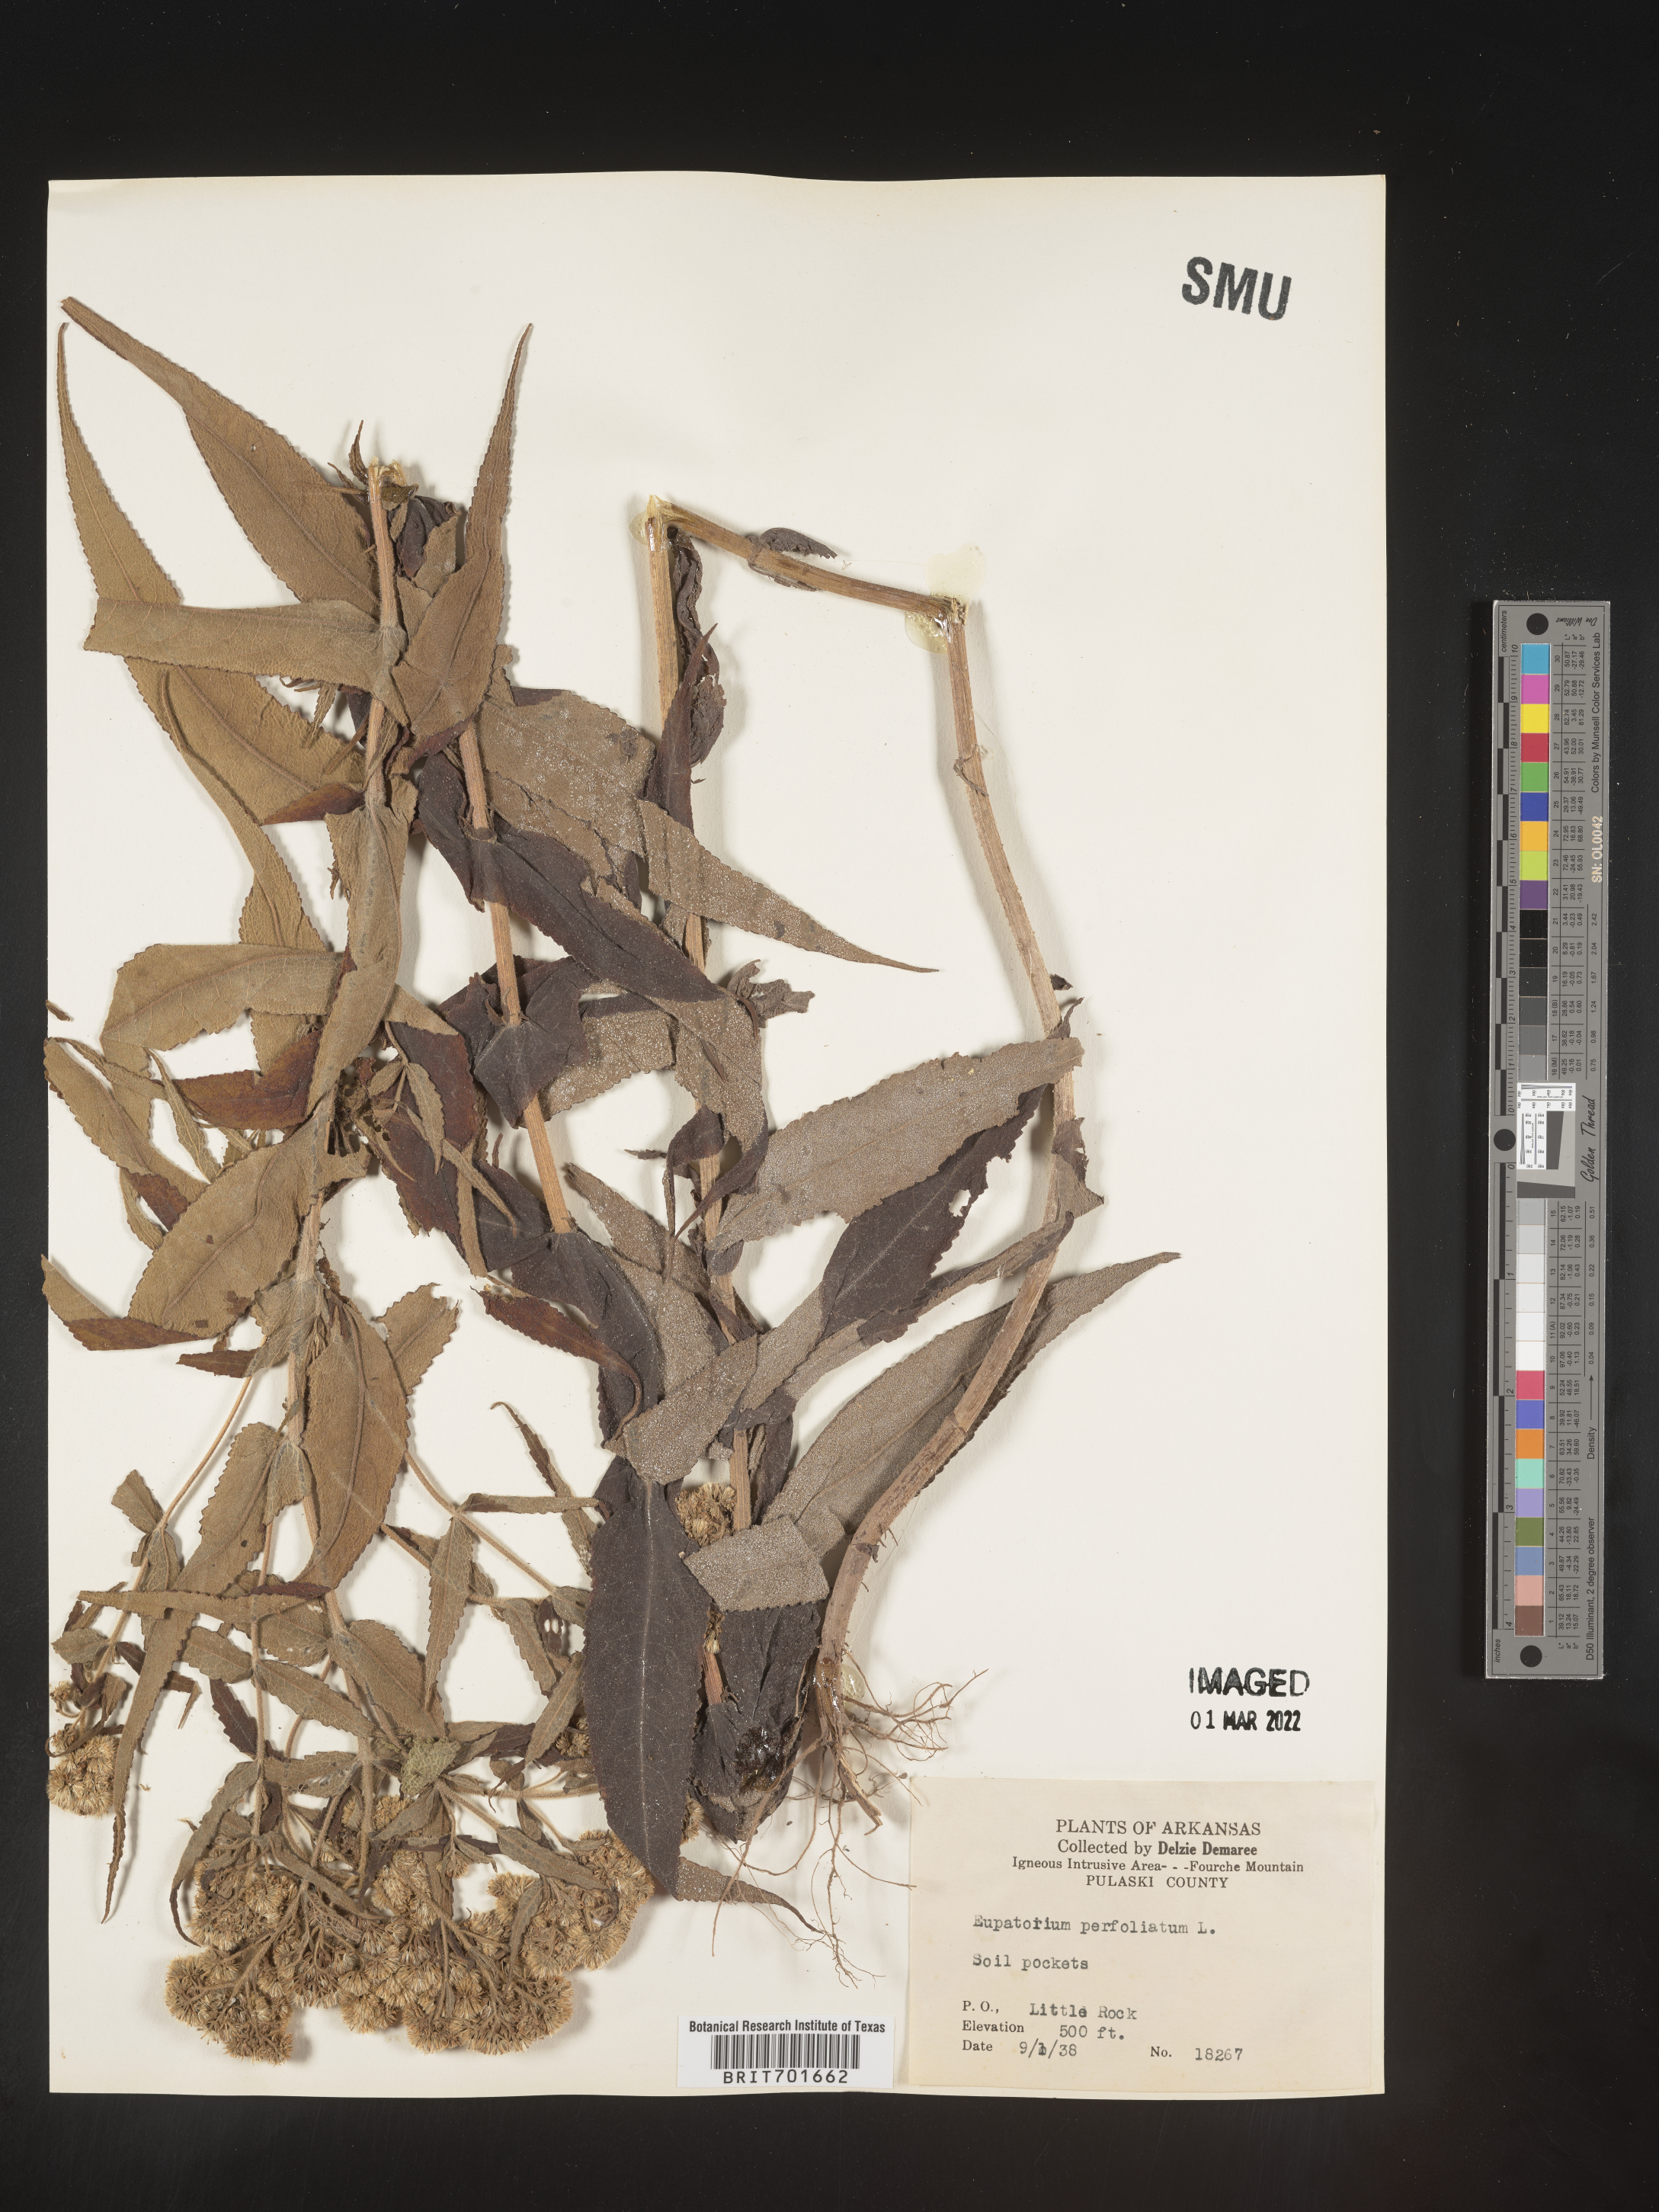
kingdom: Plantae
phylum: Tracheophyta
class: Magnoliopsida
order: Asterales
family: Asteraceae
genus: Eupatorium
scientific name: Eupatorium perfoliatum
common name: Boneset
